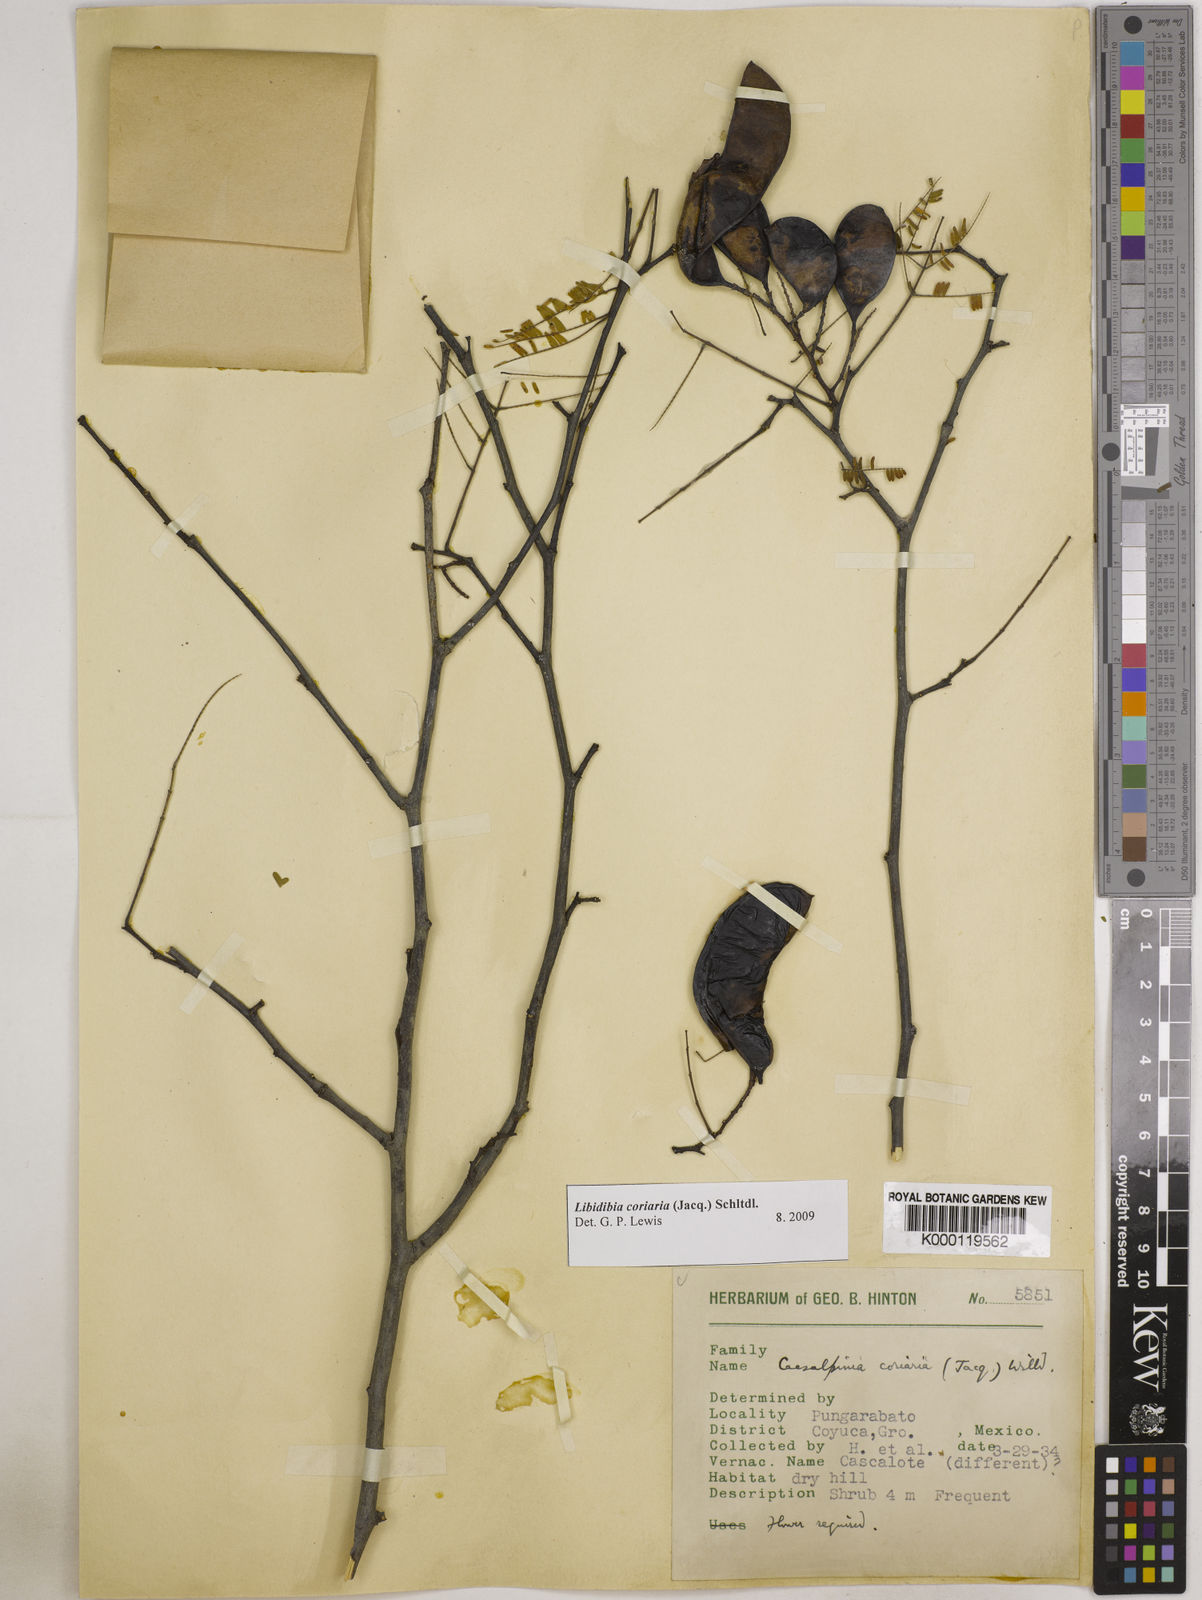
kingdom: Plantae
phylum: Tracheophyta
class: Magnoliopsida
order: Fabales
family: Fabaceae
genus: Libidibia
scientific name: Libidibia coriaria
